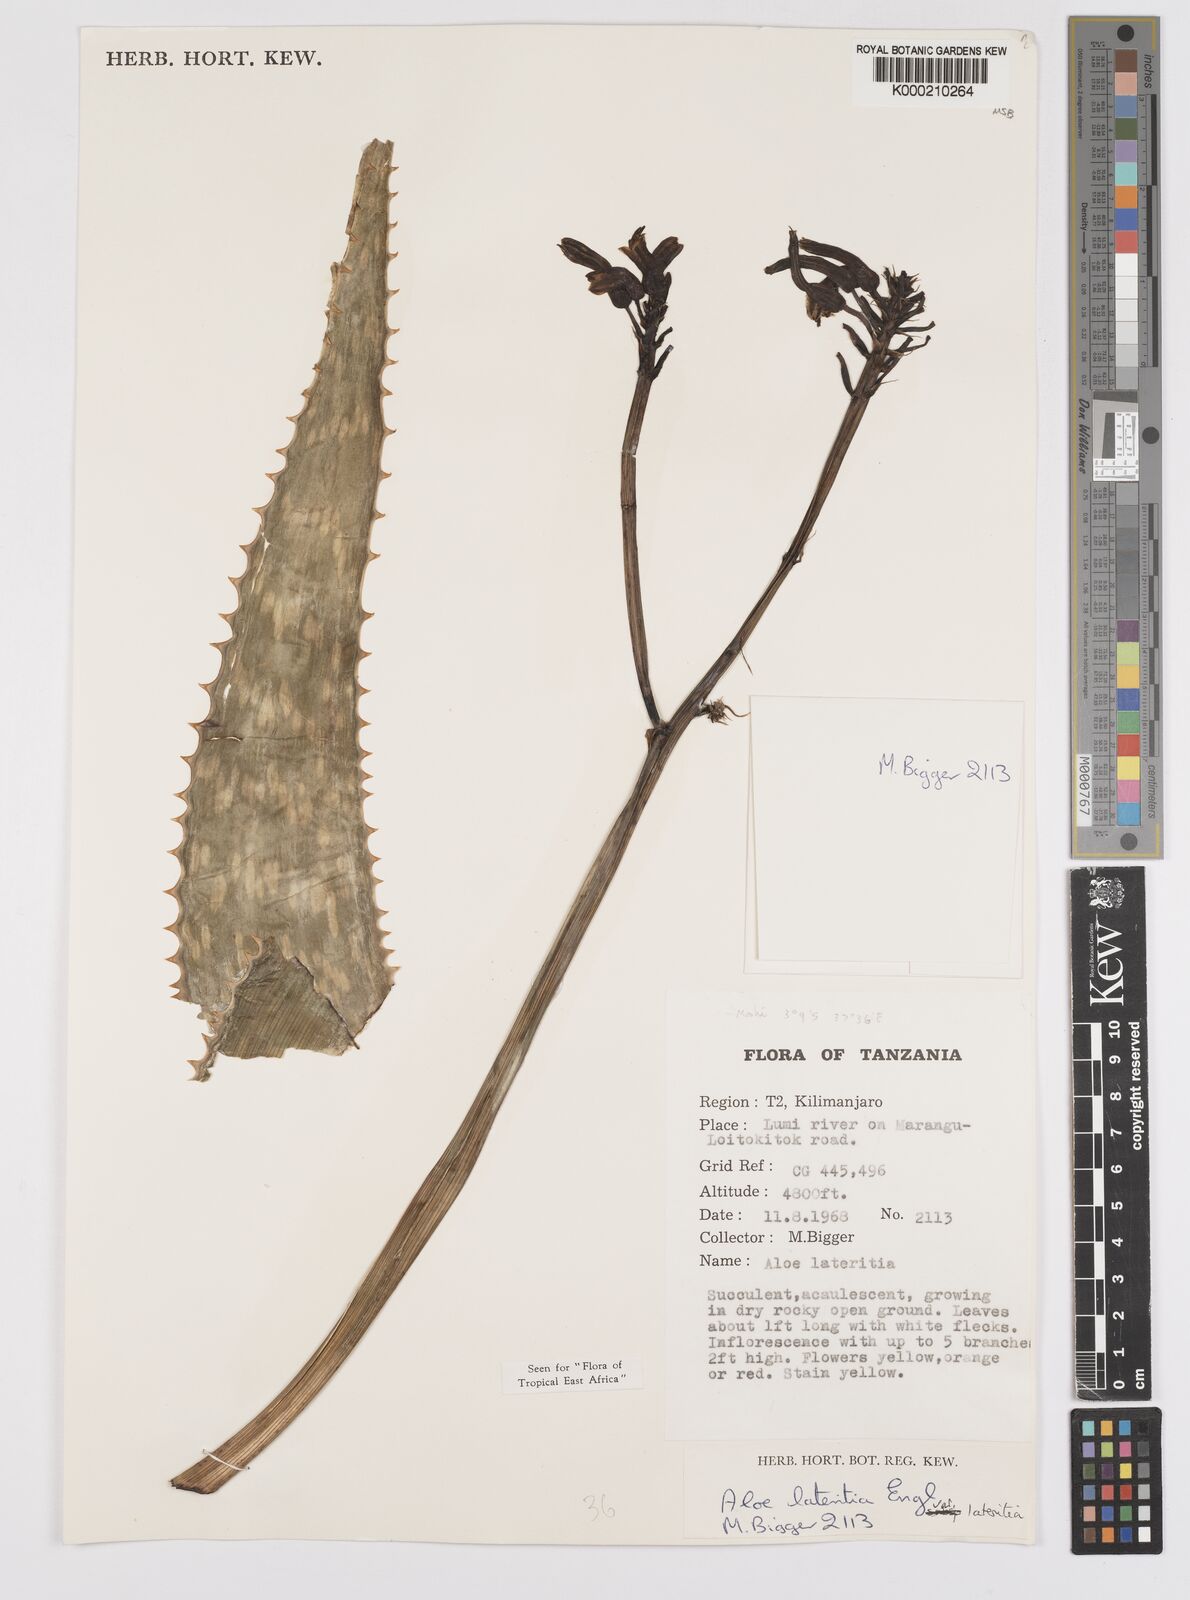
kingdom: Plantae
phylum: Tracheophyta
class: Liliopsida
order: Asparagales
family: Asphodelaceae
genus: Aloe
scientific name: Aloe lateritia
